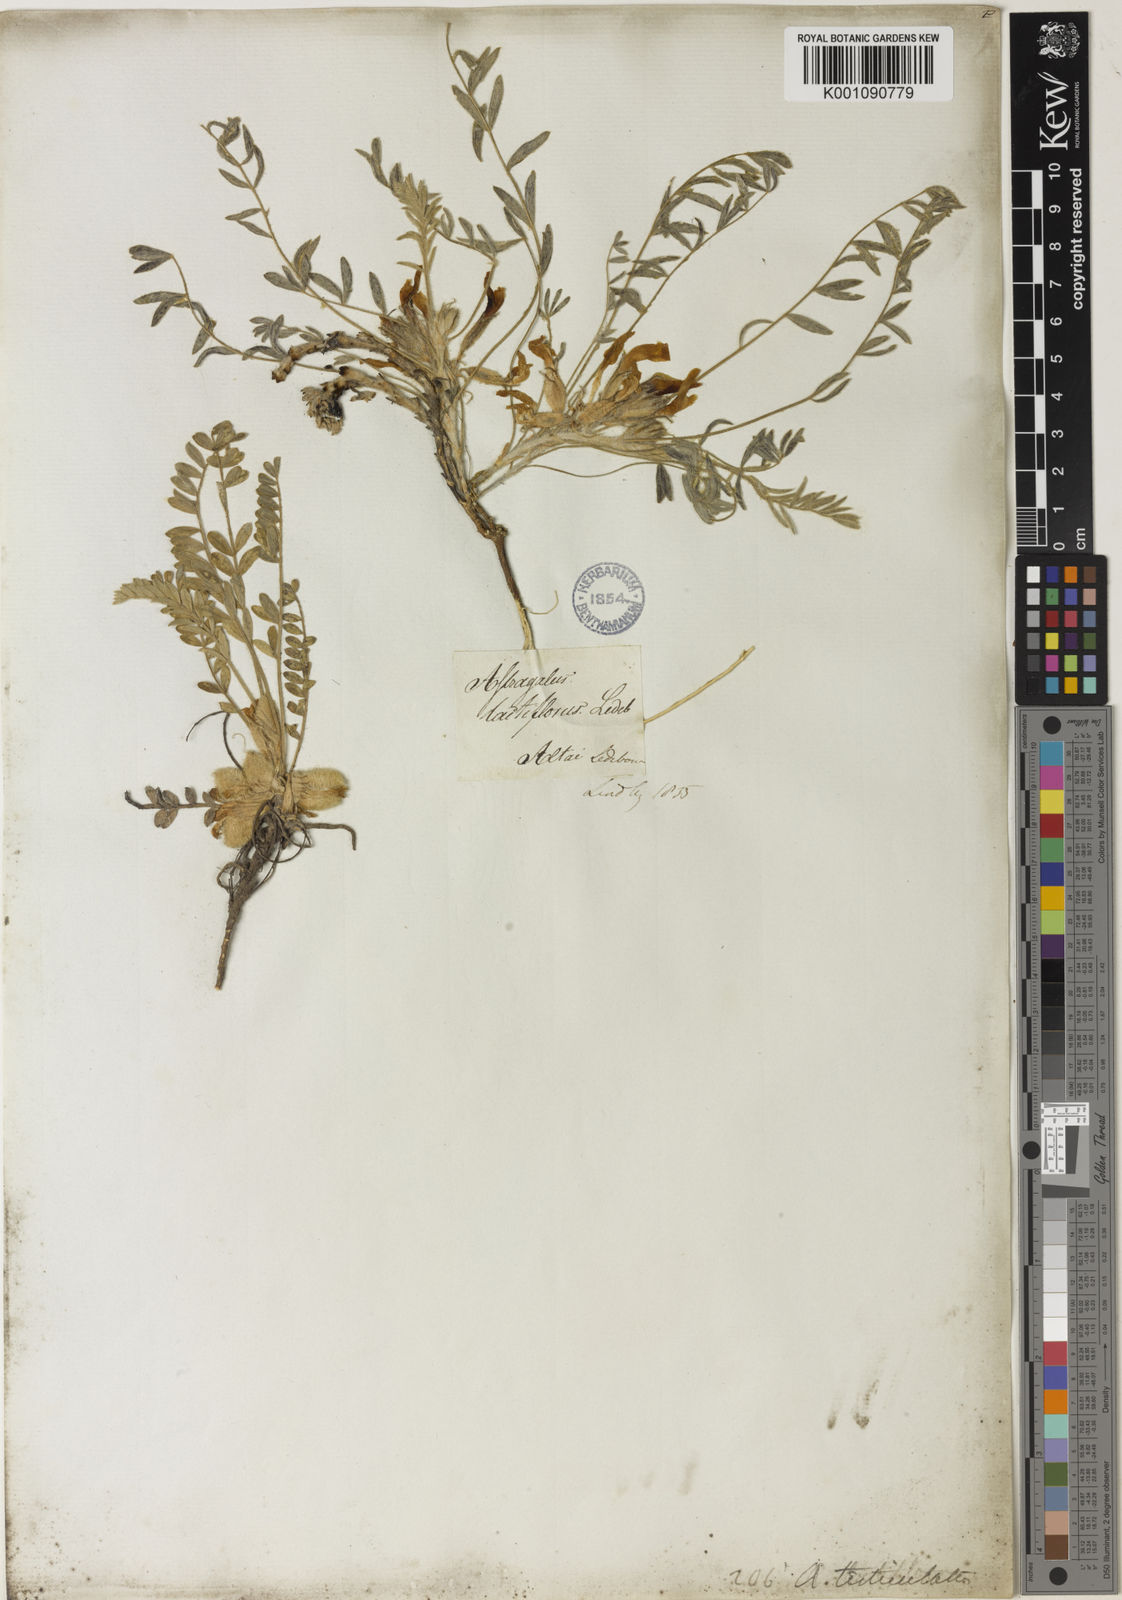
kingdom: Plantae
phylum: Tracheophyta
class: Magnoliopsida
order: Fabales
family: Fabaceae
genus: Astragalus
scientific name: Astragalus
